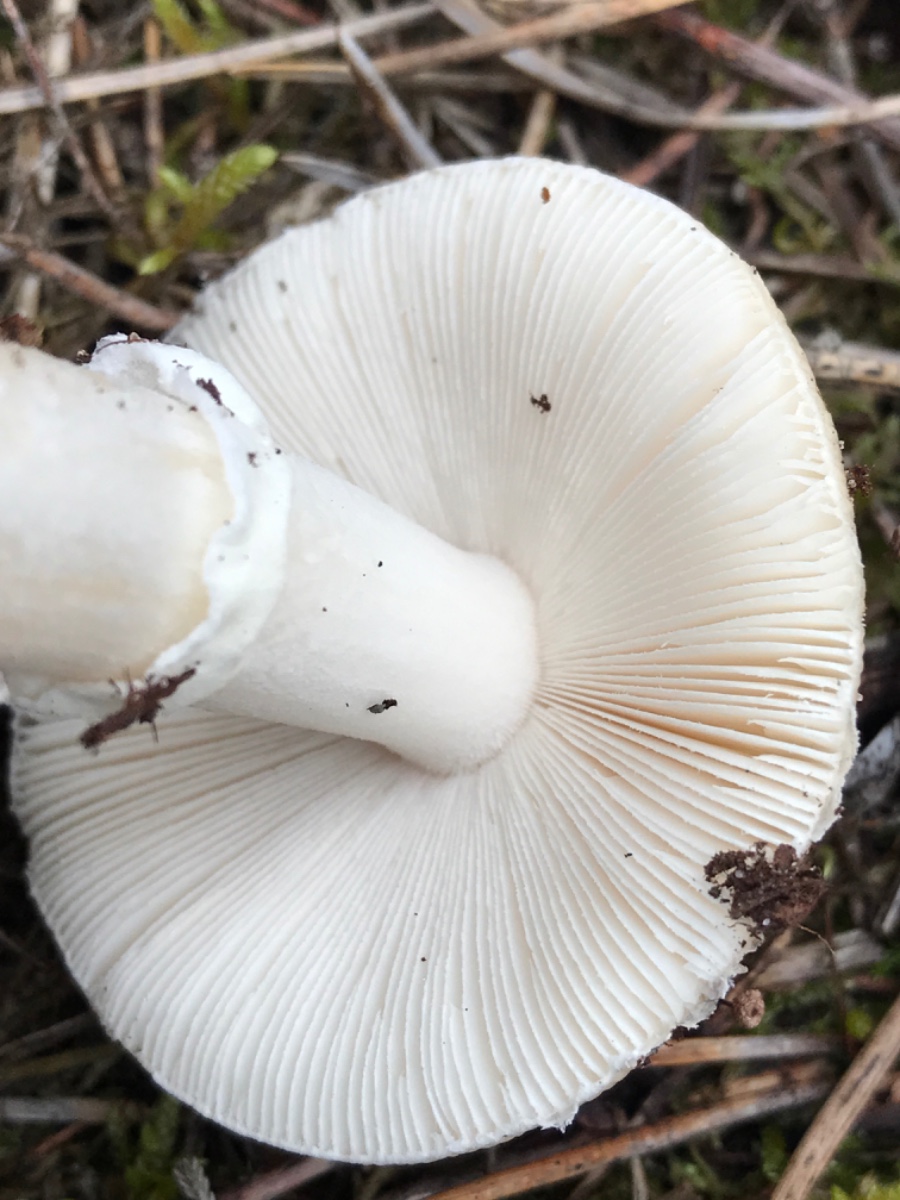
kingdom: Fungi
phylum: Basidiomycota
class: Agaricomycetes
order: Agaricales
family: Amanitaceae
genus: Amanita
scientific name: Amanita gemmata
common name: okkergul fluesvamp
